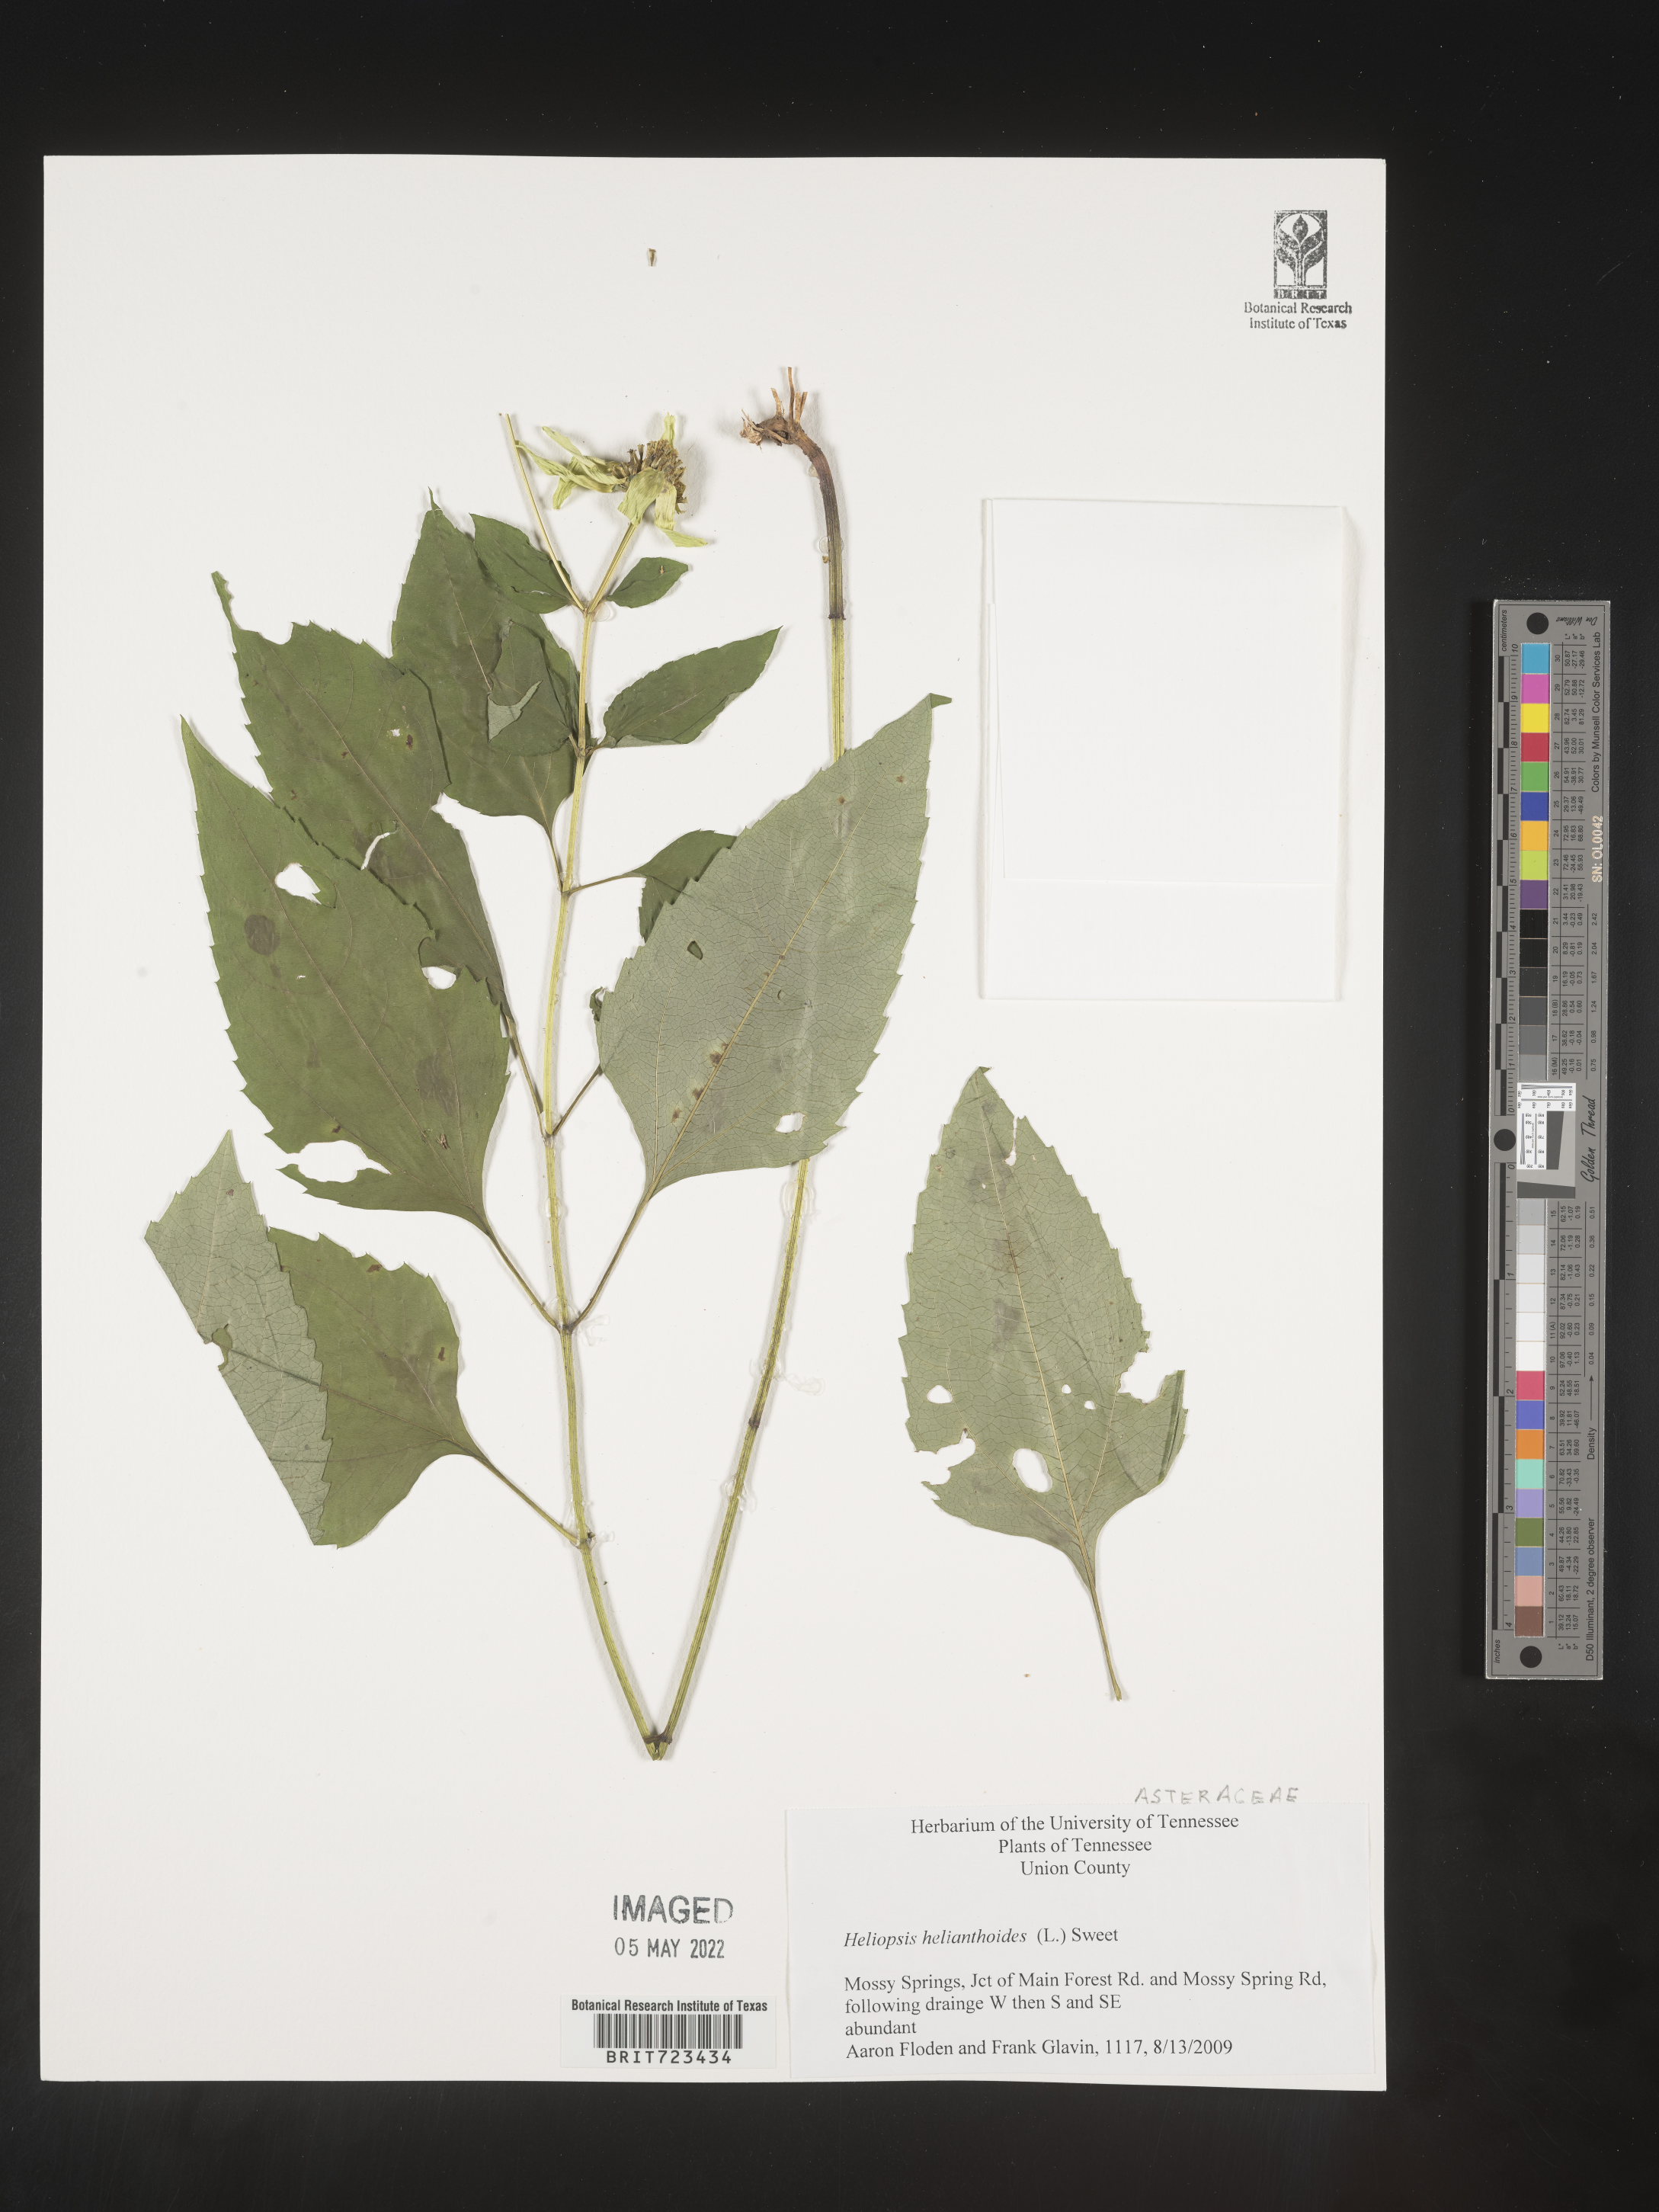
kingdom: Plantae
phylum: Tracheophyta
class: Magnoliopsida
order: Asterales
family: Asteraceae
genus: Heliopsis
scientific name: Heliopsis helianthoides
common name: False sunflower
